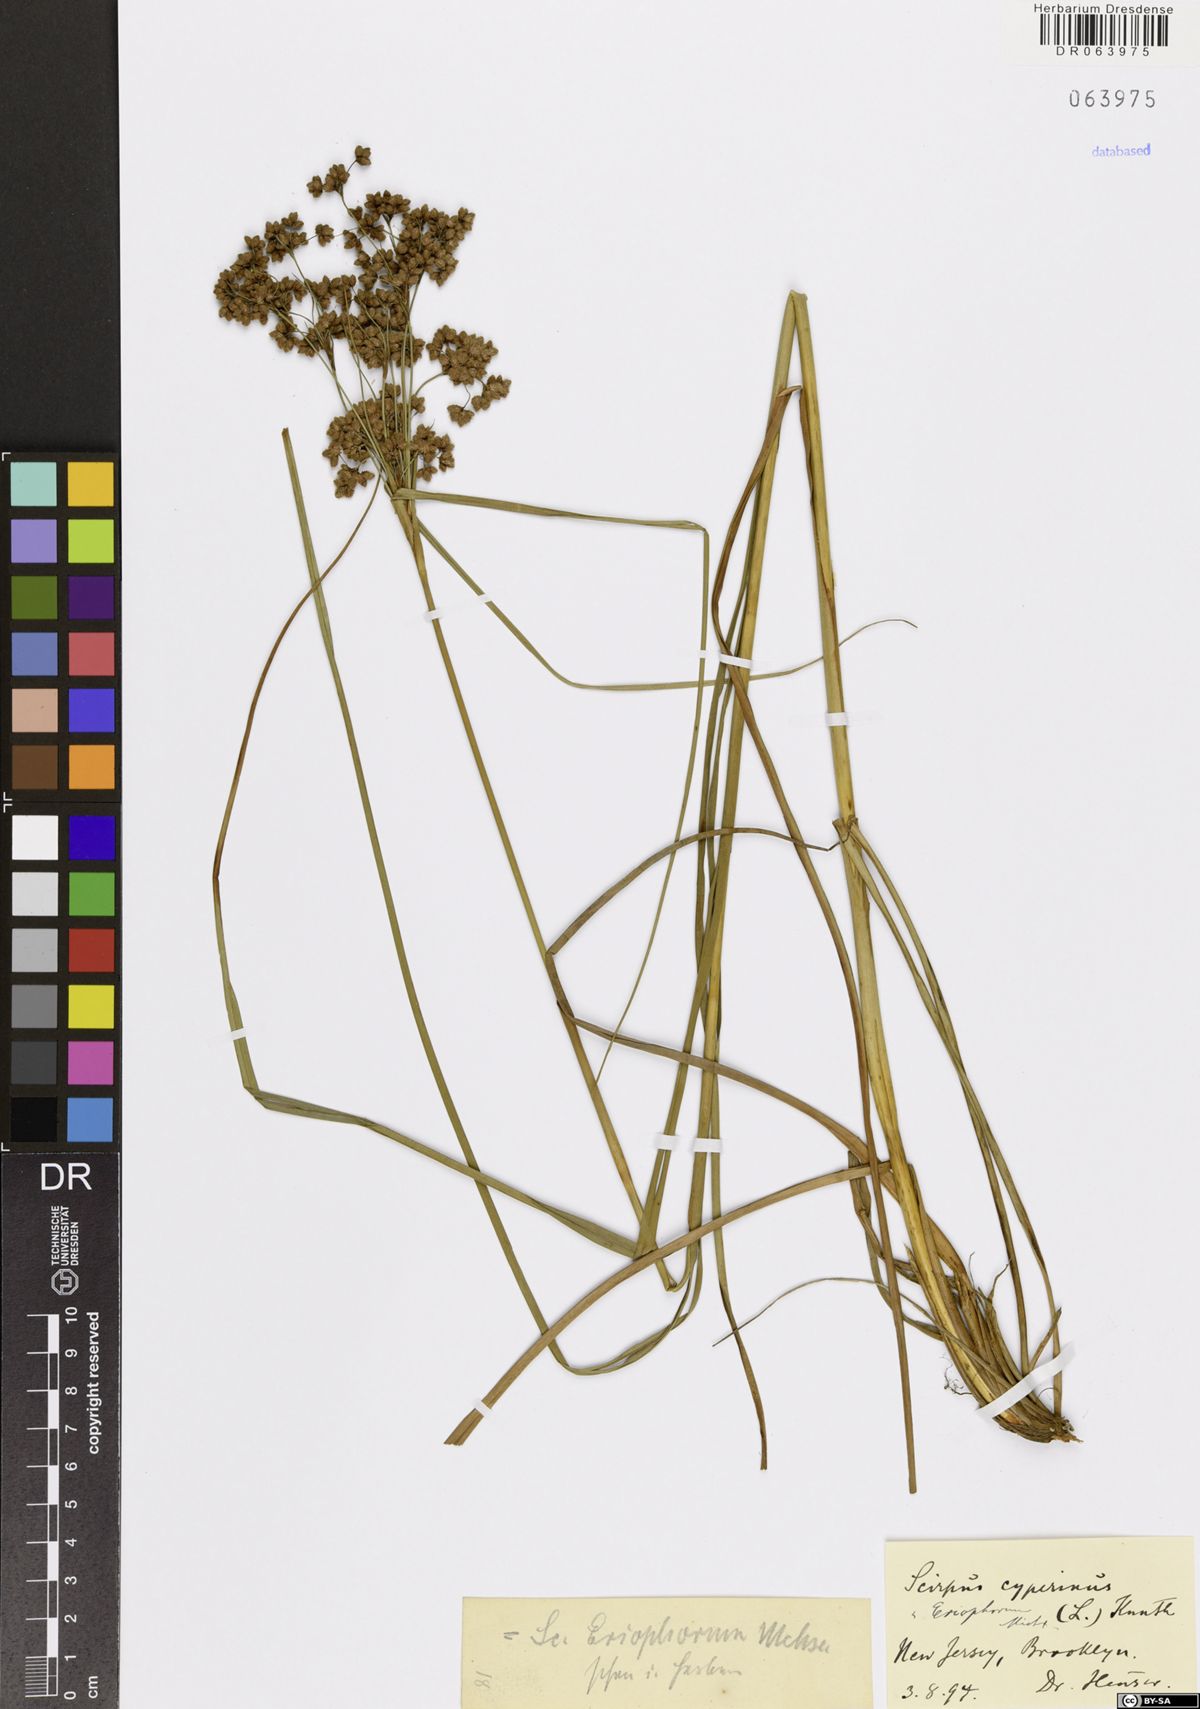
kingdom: Plantae
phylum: Tracheophyta
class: Liliopsida
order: Poales
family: Cyperaceae
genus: Scirpus
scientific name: Scirpus cyperinus
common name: Black-sheathed bulrush
